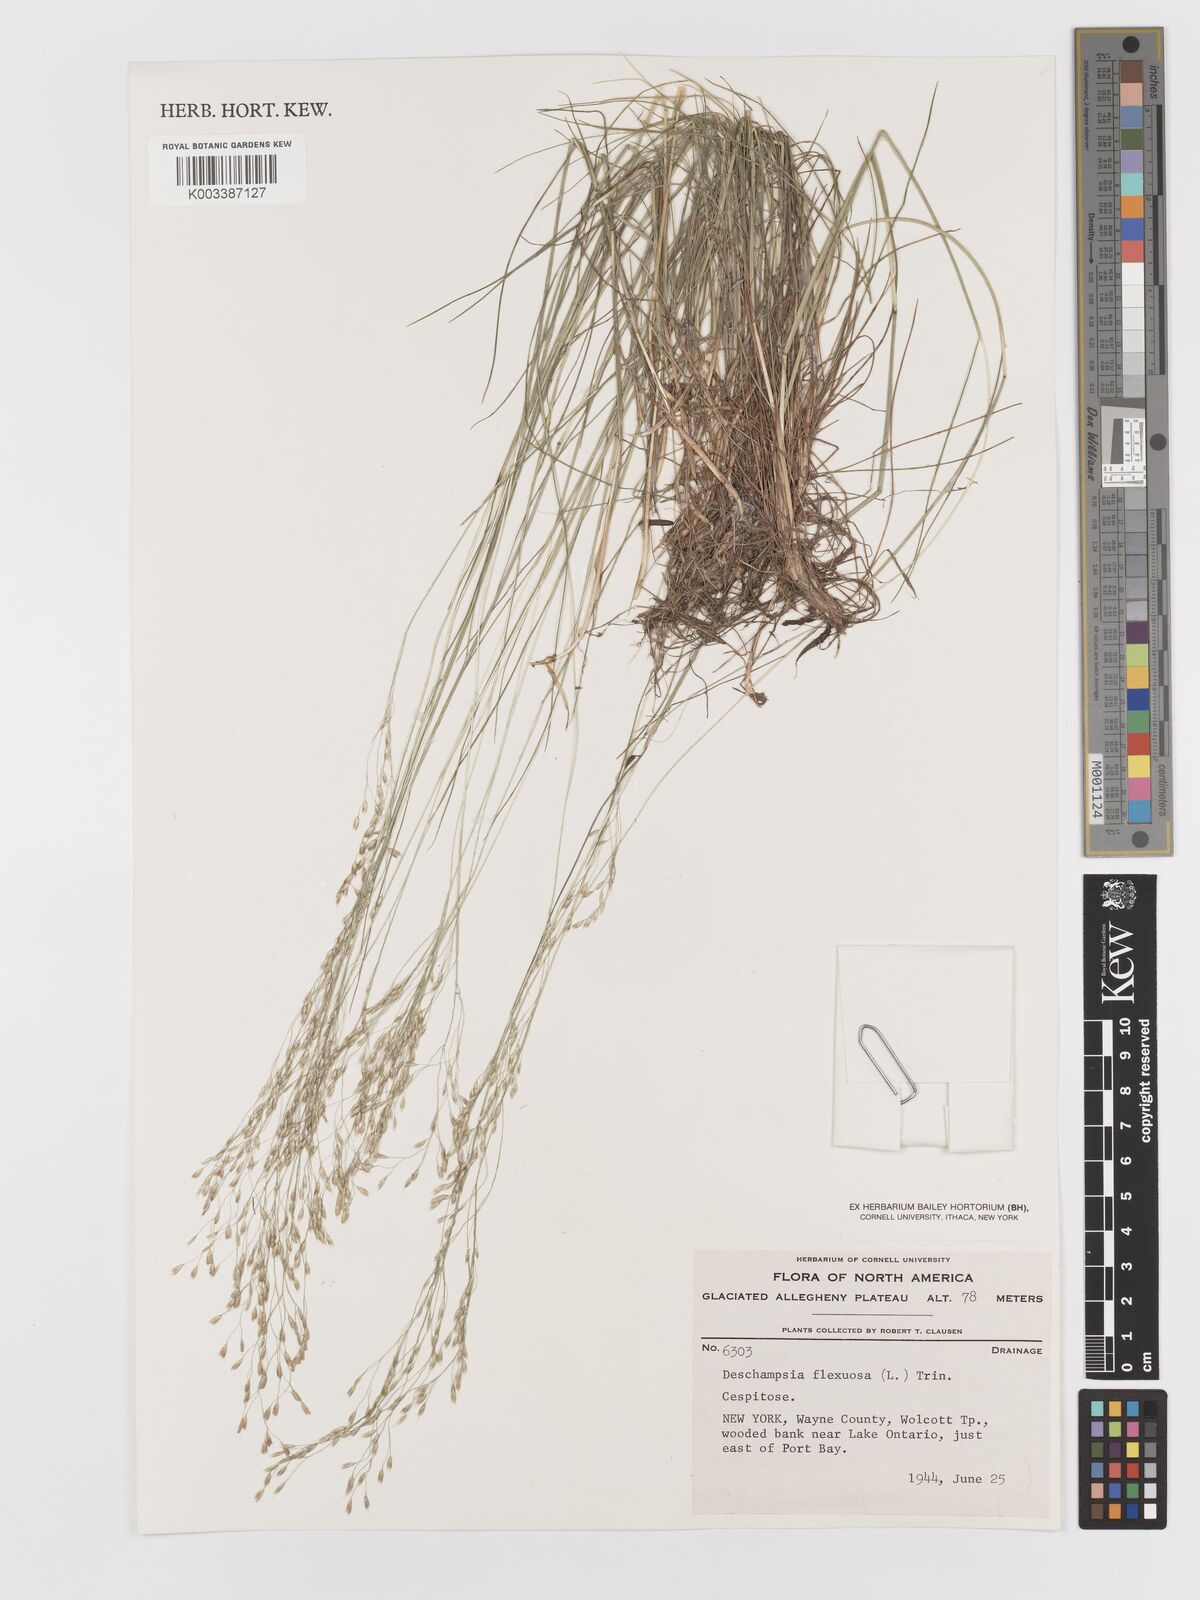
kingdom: Plantae
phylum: Tracheophyta
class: Liliopsida
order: Poales
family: Poaceae
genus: Avenella
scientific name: Avenella flexuosa
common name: Wavy hairgrass
